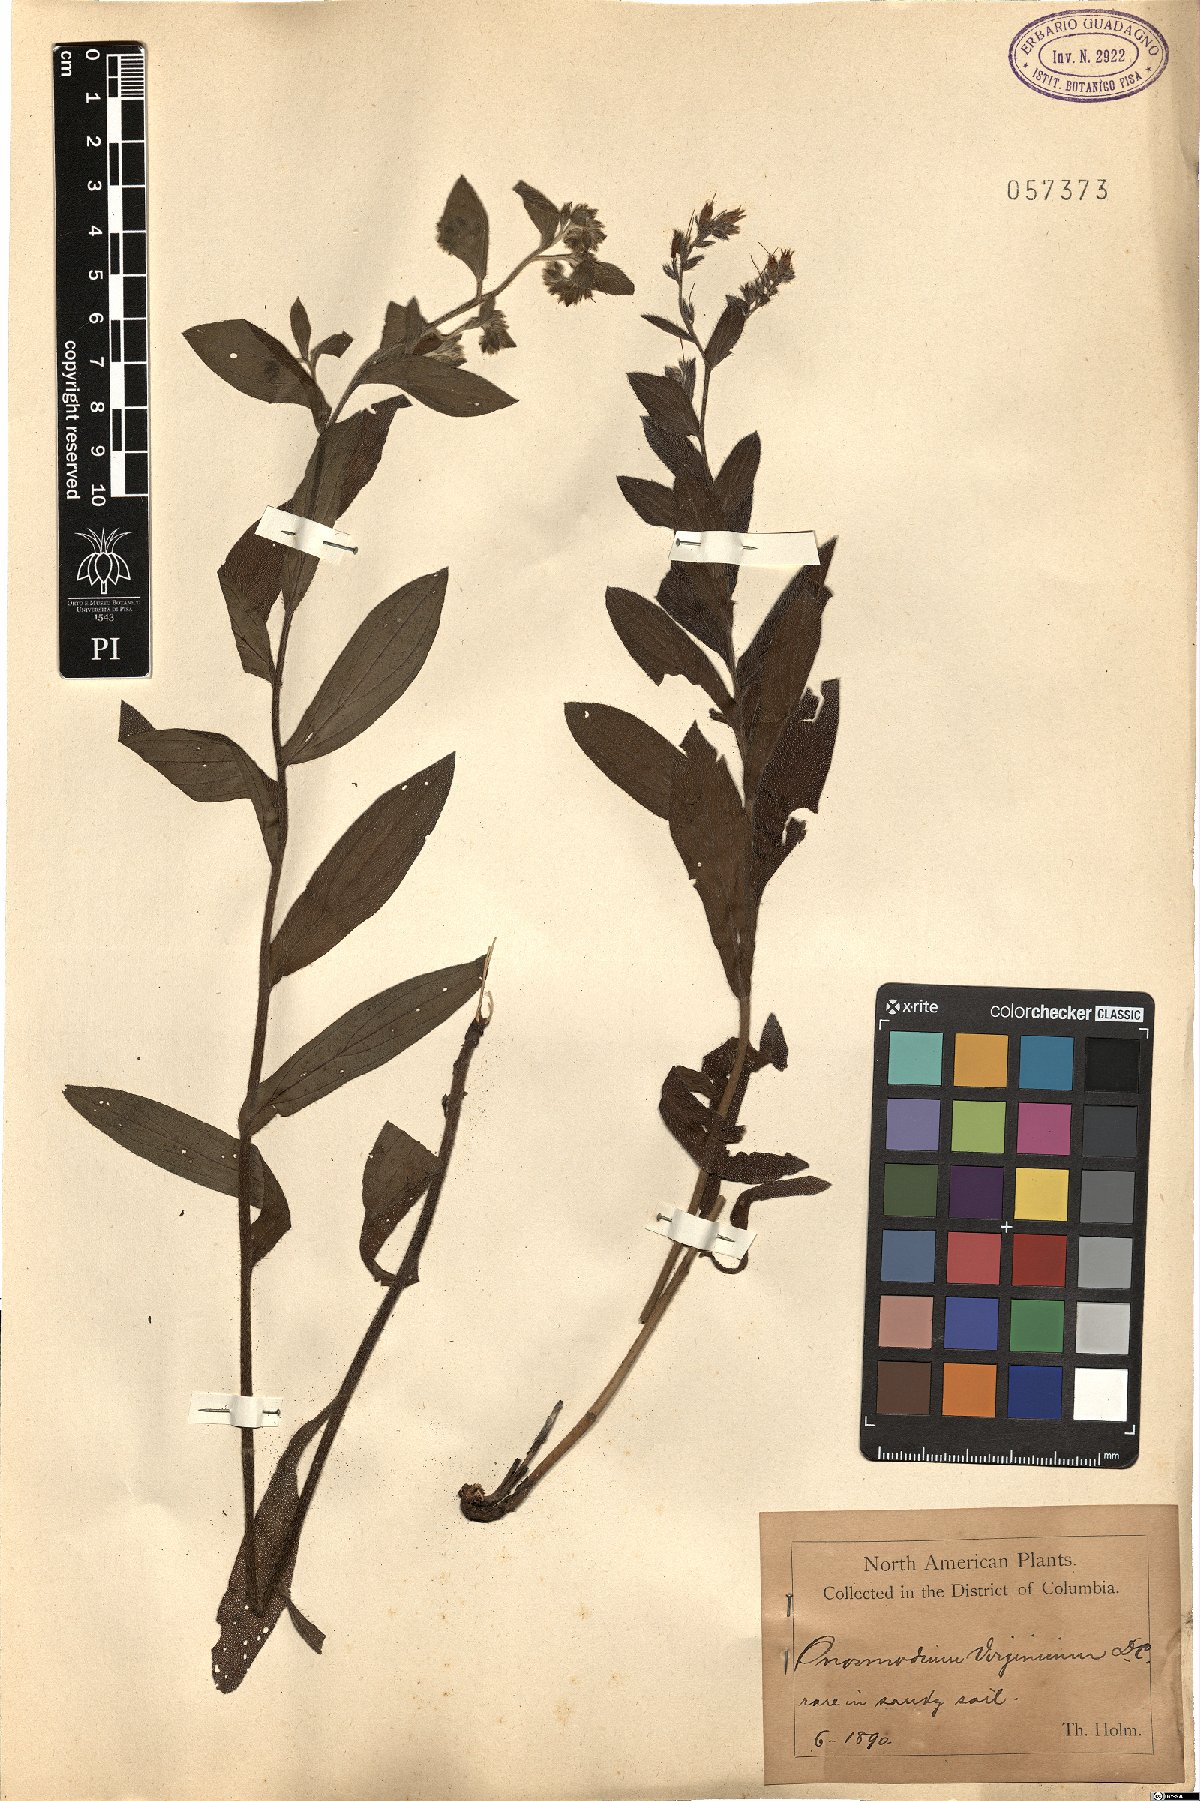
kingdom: Plantae
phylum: Tracheophyta
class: Magnoliopsida
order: Boraginales
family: Boraginaceae
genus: Lithospermum
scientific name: Lithospermum virginianum
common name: Eastern false gromwell
